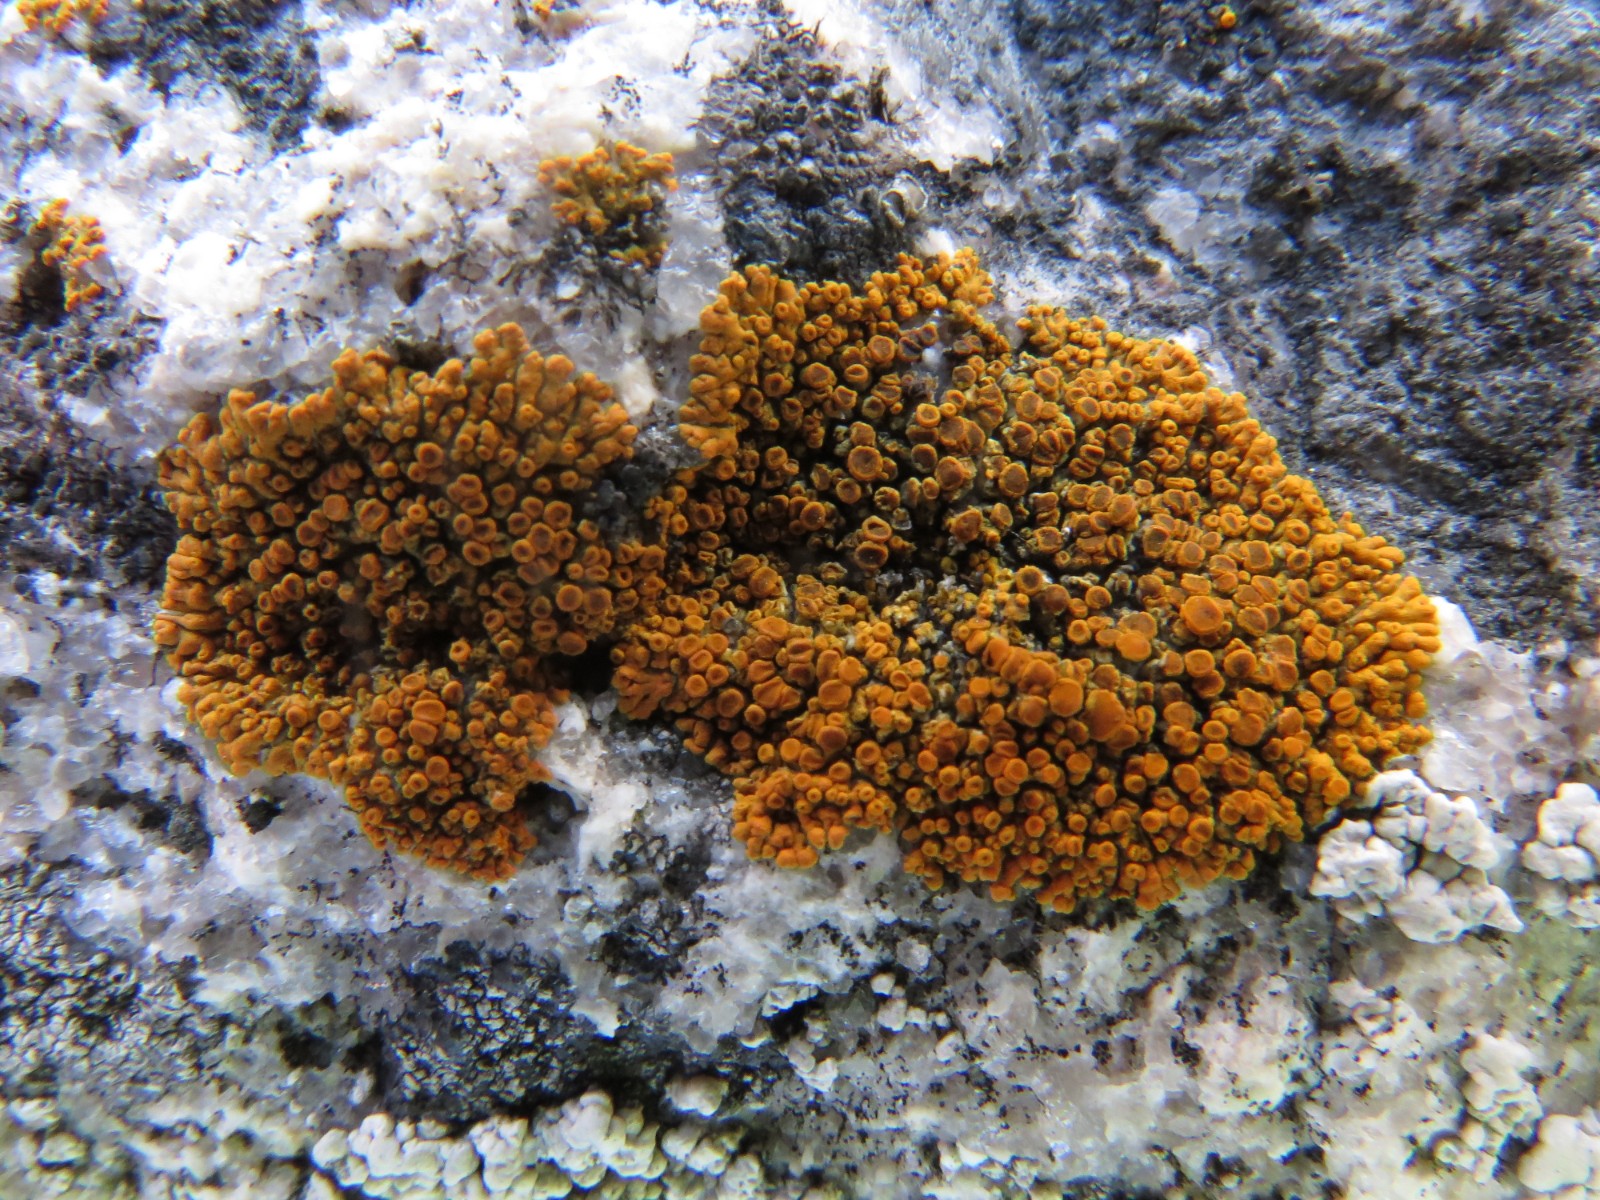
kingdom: Fungi
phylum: Ascomycota
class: Lecanoromycetes
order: Teloschistales
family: Teloschistaceae
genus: Athallia
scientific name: Athallia scopularis
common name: klippe-orangelav
